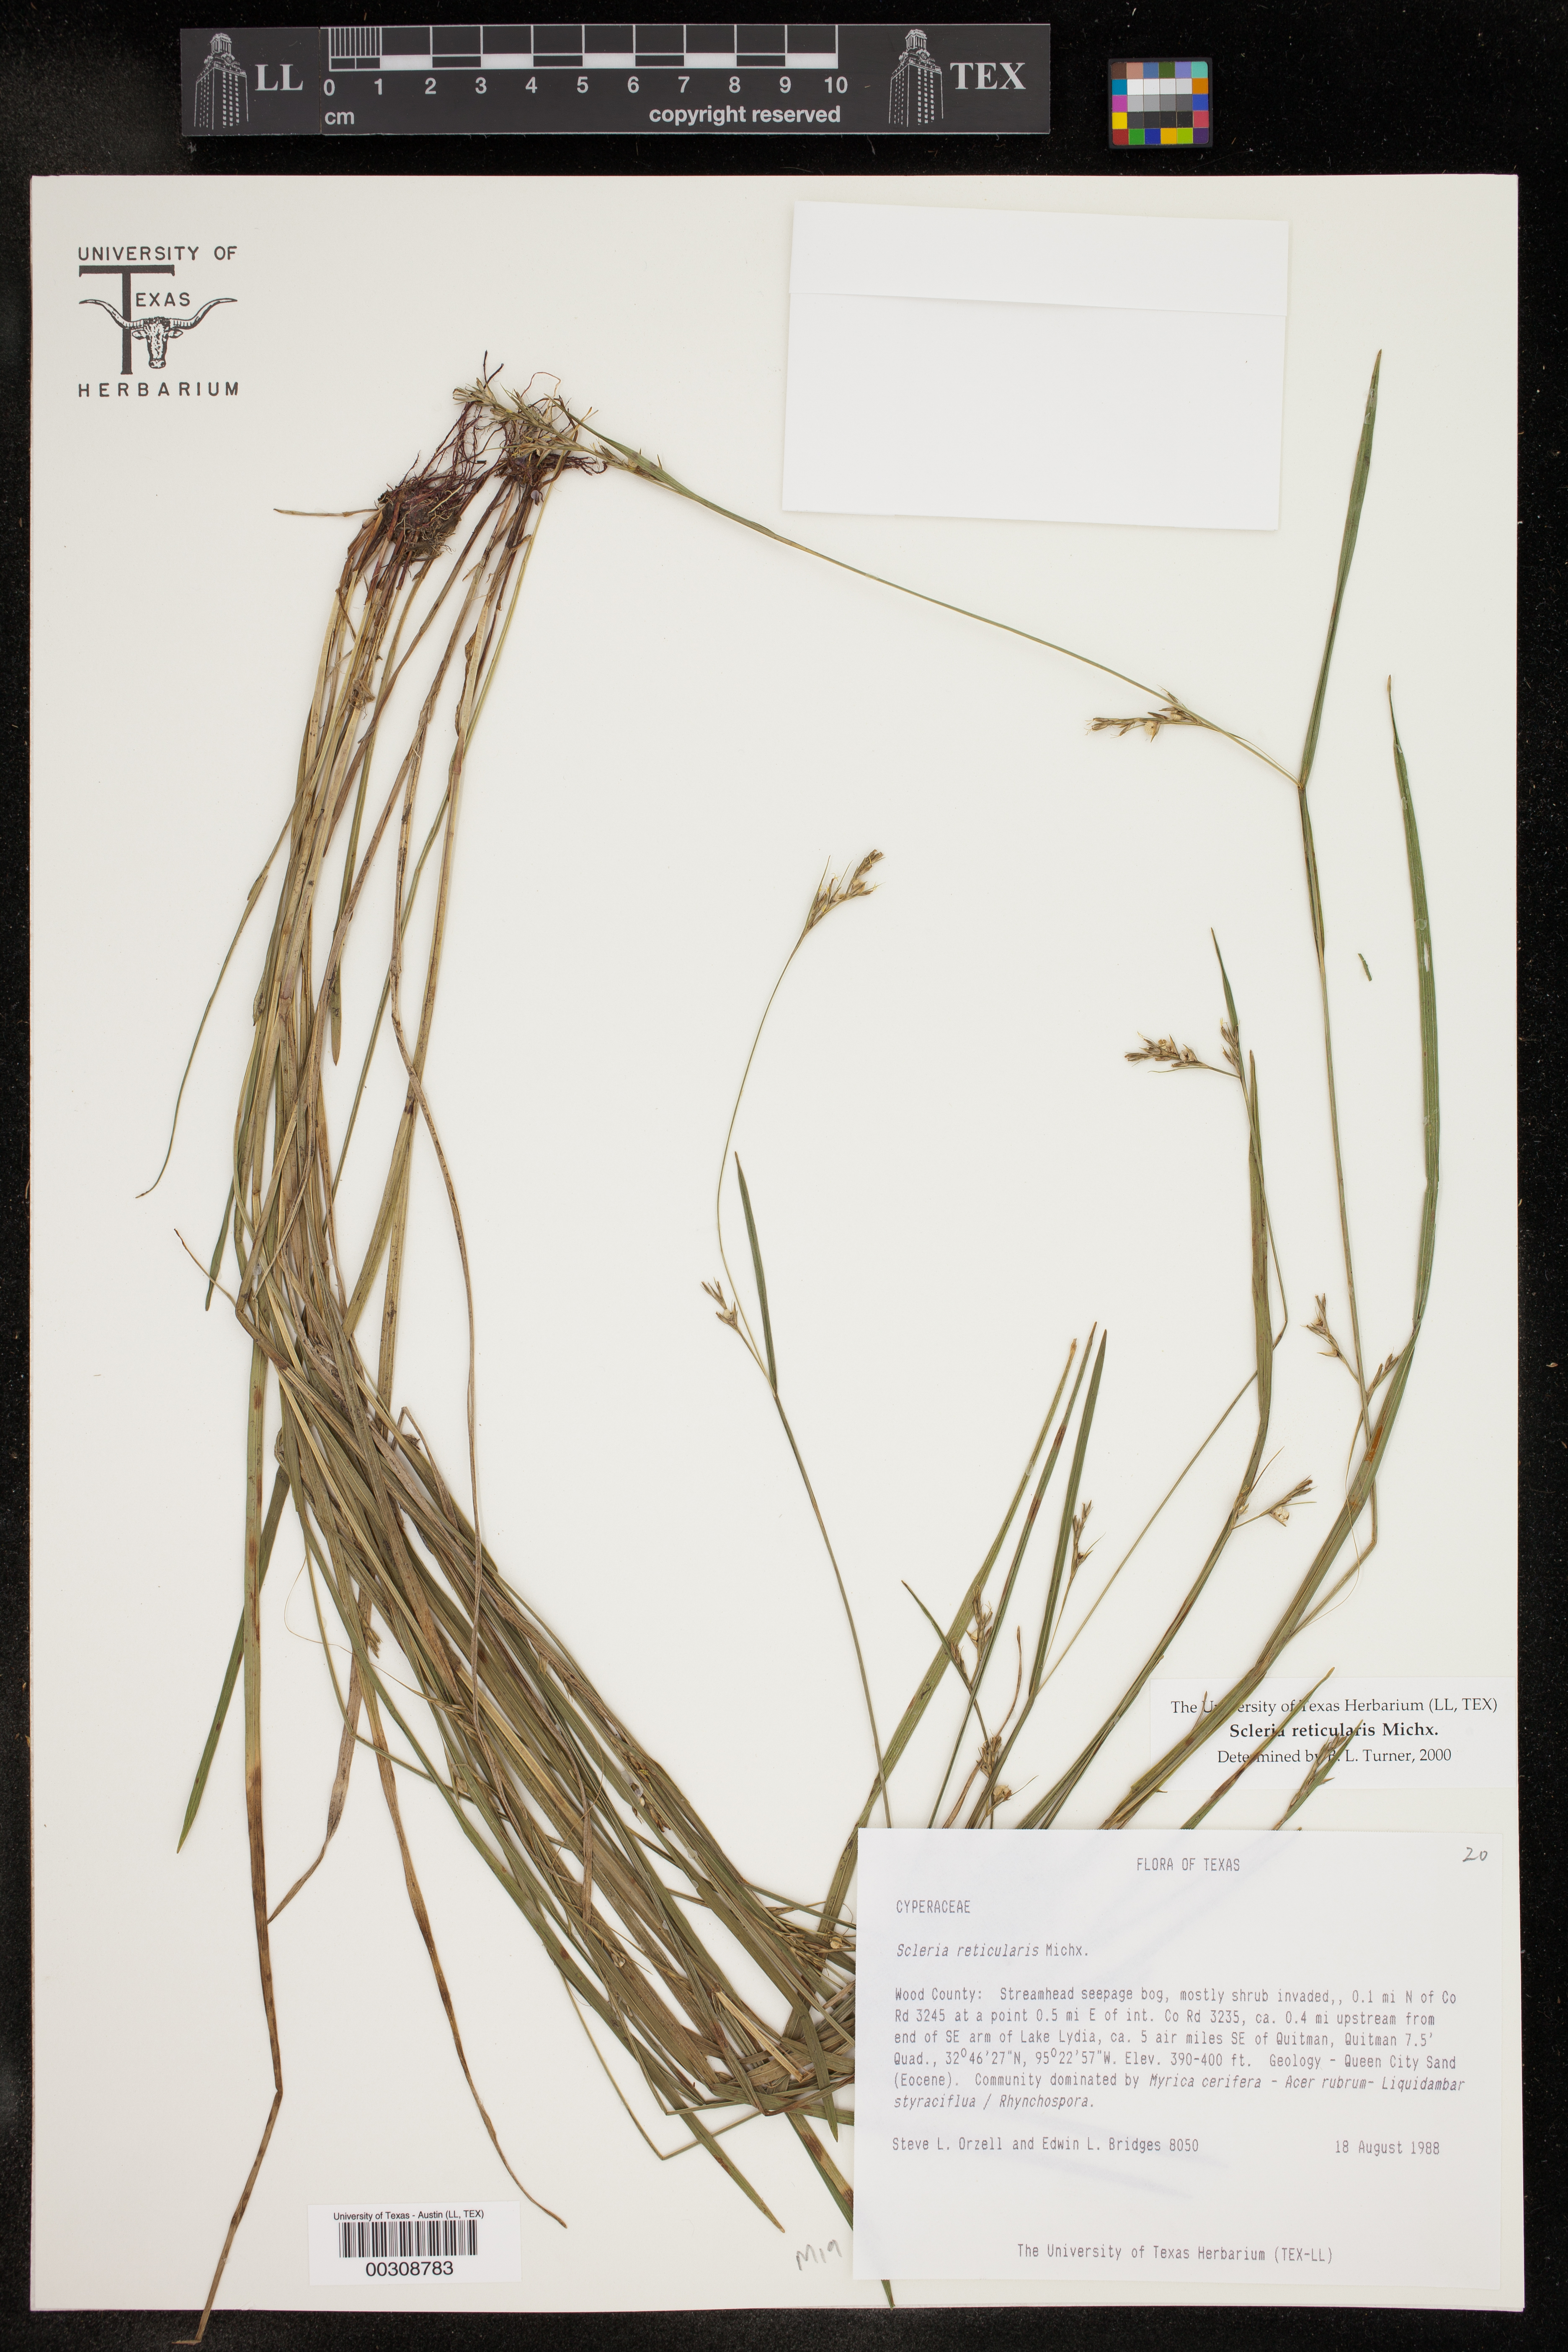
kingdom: Plantae
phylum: Tracheophyta
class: Liliopsida
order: Poales
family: Cyperaceae
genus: Scleria
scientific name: Scleria reticularis
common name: Netted nutrush
